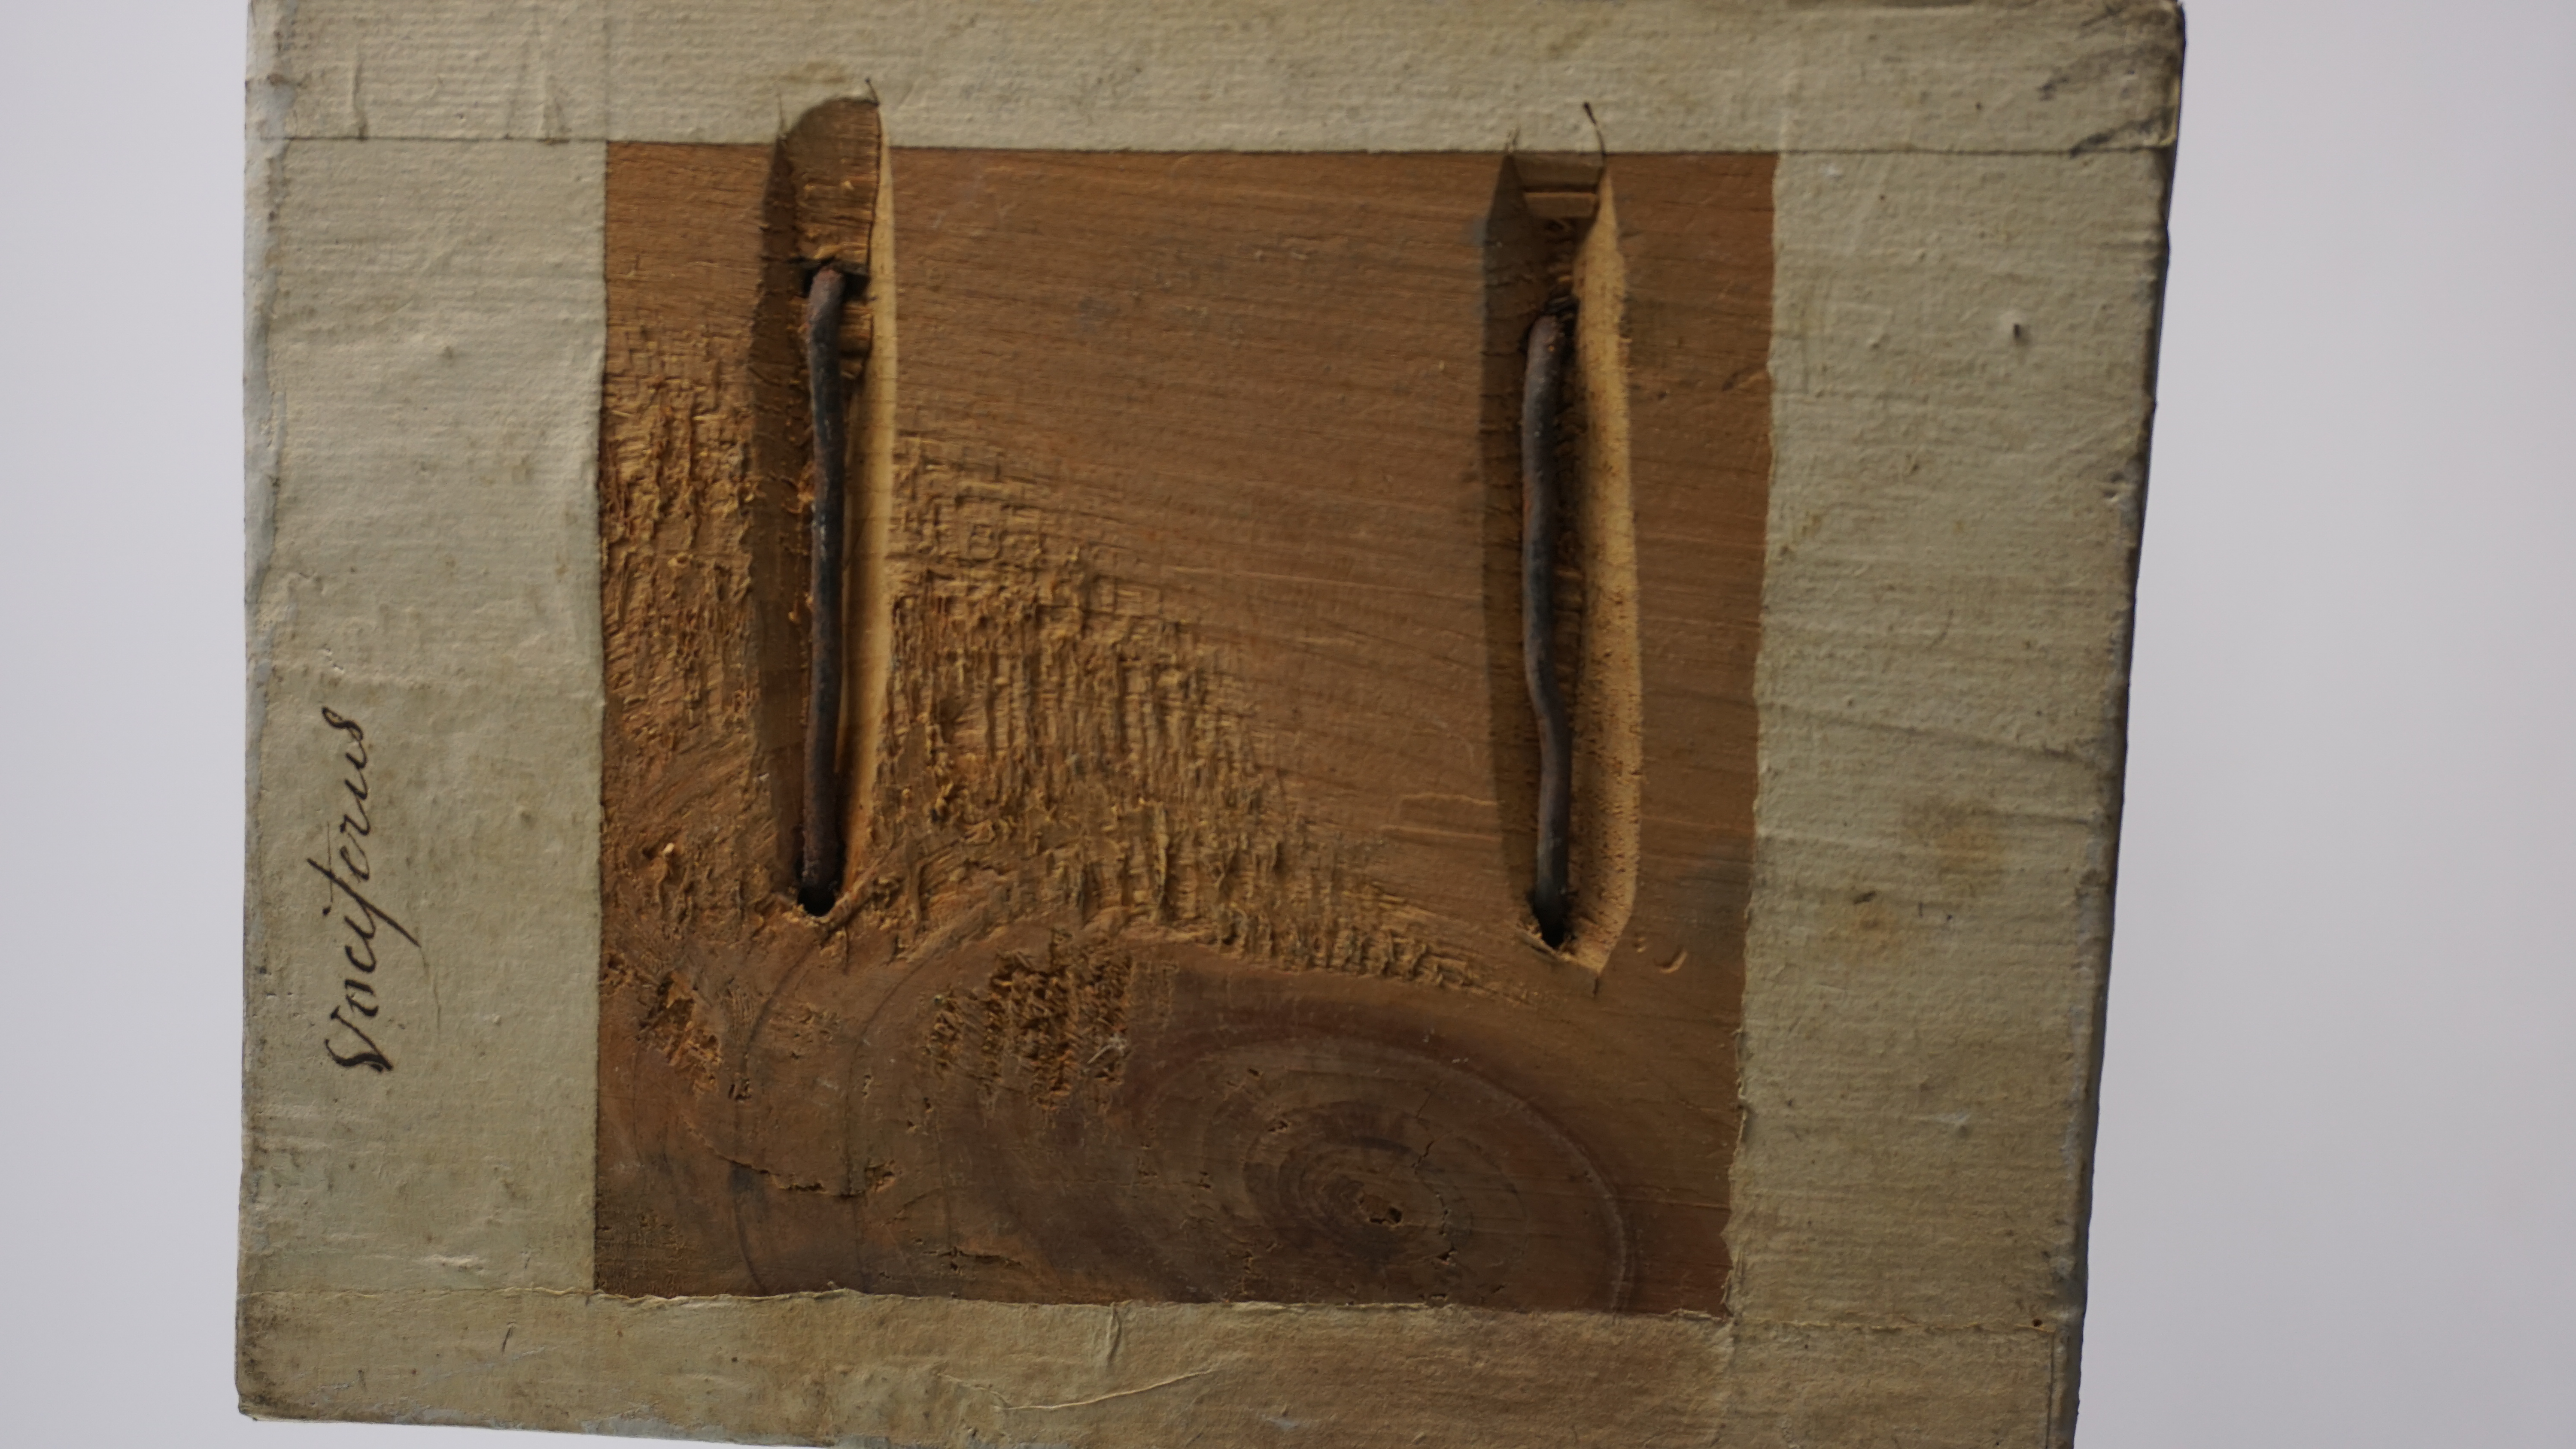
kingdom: Animalia
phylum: Chordata
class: Aves
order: Charadriiformes
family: Laridae
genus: Larus
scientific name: Larus fuscus
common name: Lesser black-backed gull
